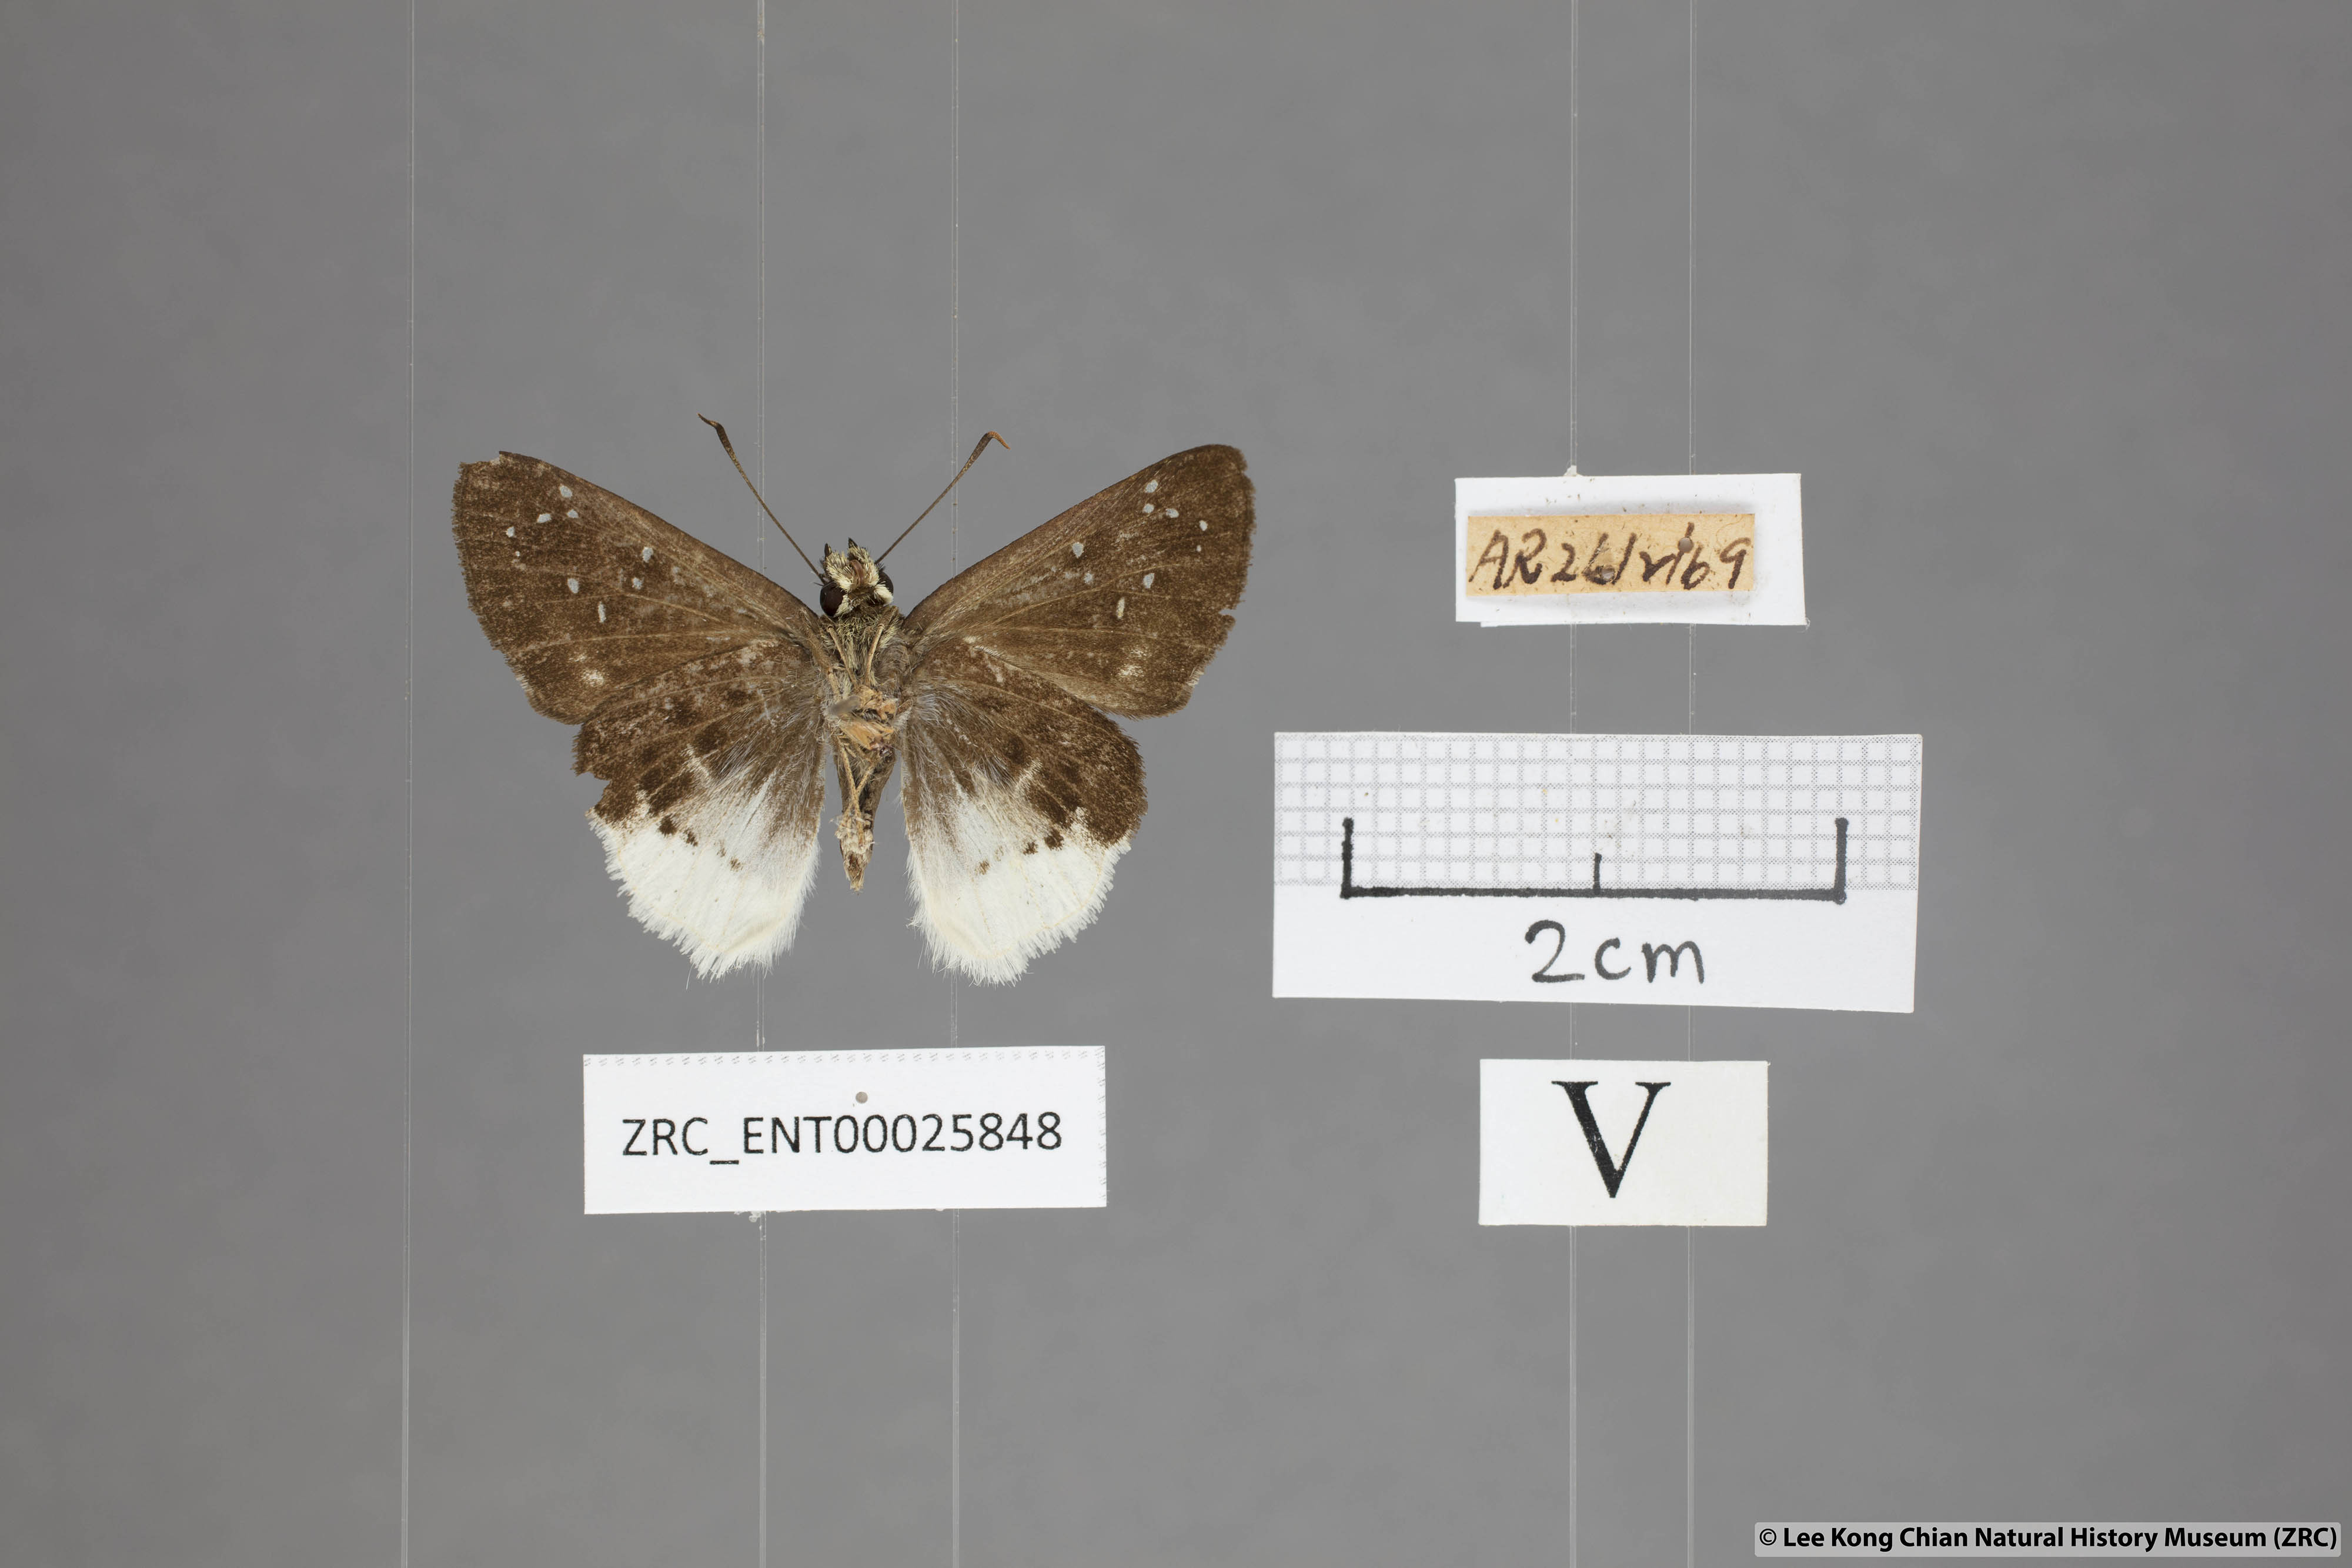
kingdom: Animalia
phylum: Arthropoda
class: Insecta
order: Lepidoptera
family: Hesperiidae
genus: Darpa
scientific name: Darpa pterica
